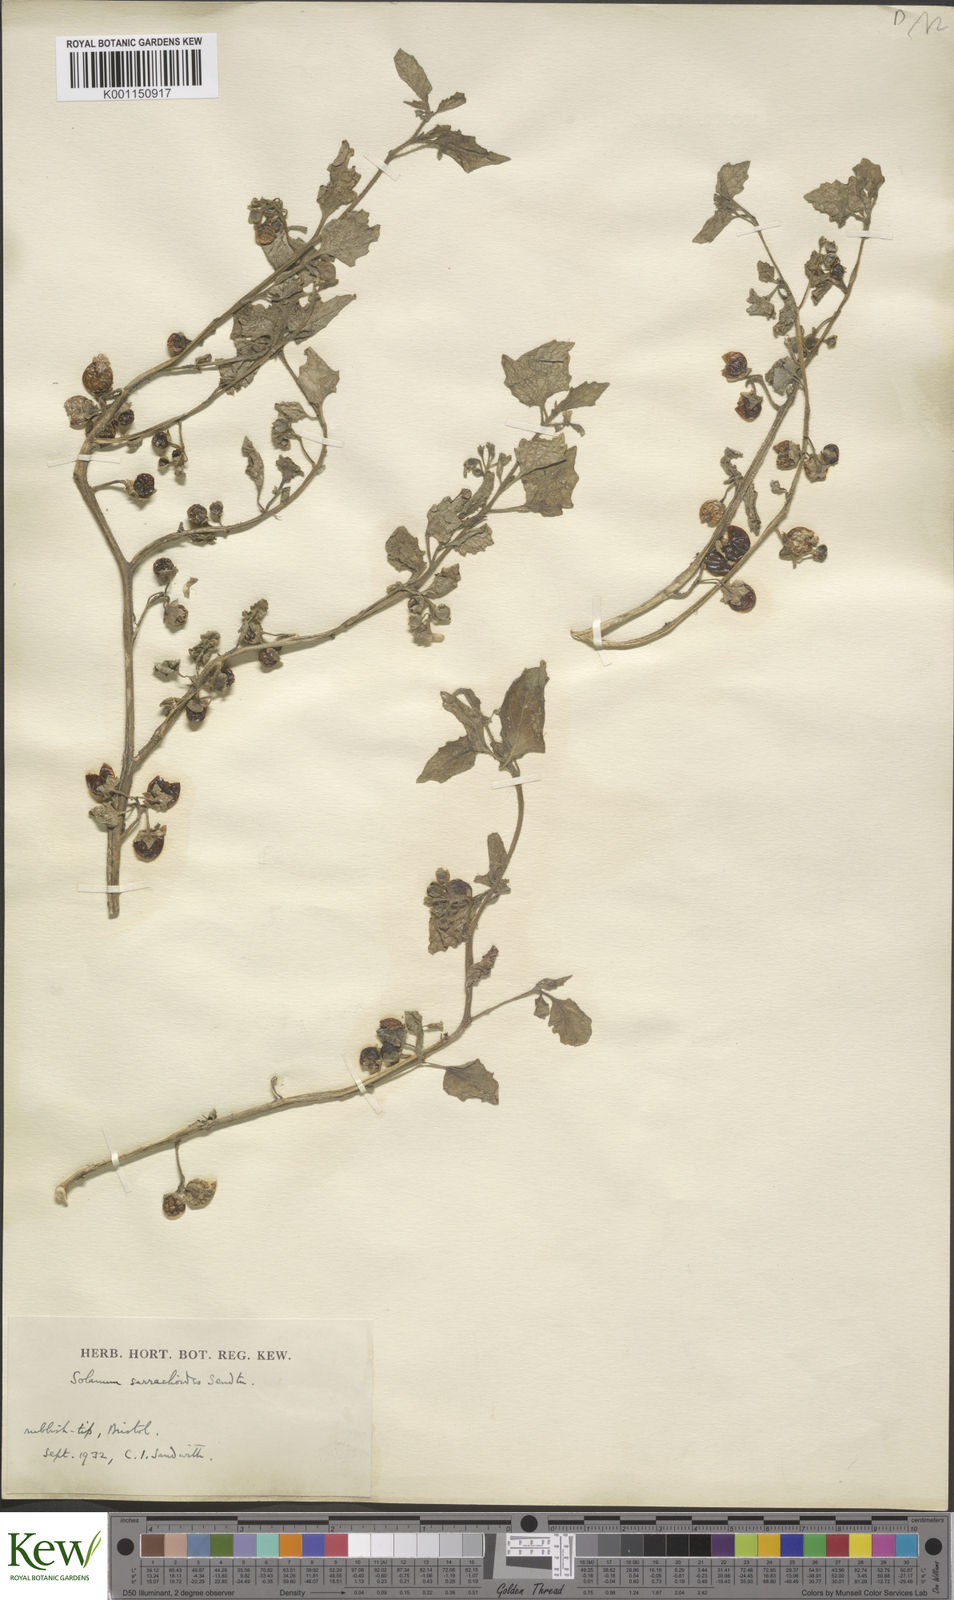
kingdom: Plantae
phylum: Tracheophyta
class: Magnoliopsida
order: Solanales
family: Solanaceae
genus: Solanum
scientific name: Solanum nitidibaccatum
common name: Hairy nightshade
